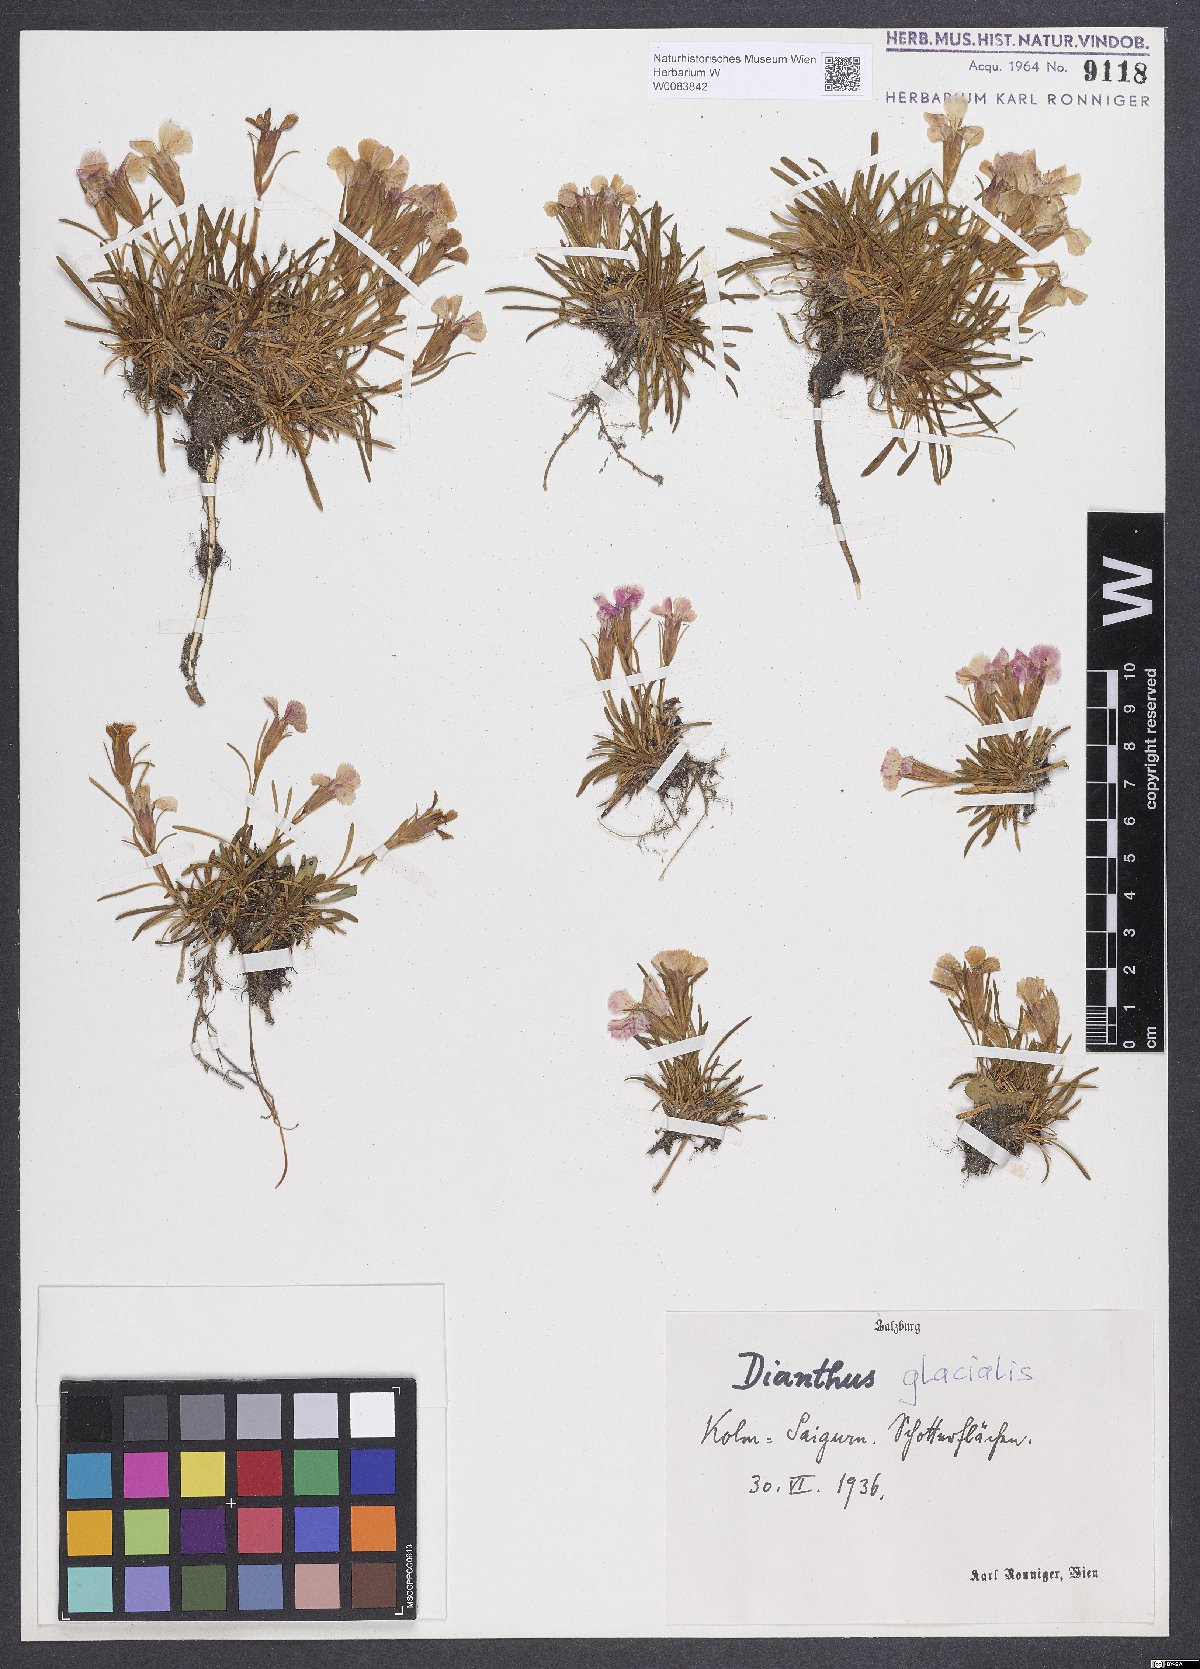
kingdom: Plantae
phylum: Tracheophyta
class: Magnoliopsida
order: Caryophyllales
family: Caryophyllaceae
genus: Dianthus
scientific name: Dianthus glacialis
